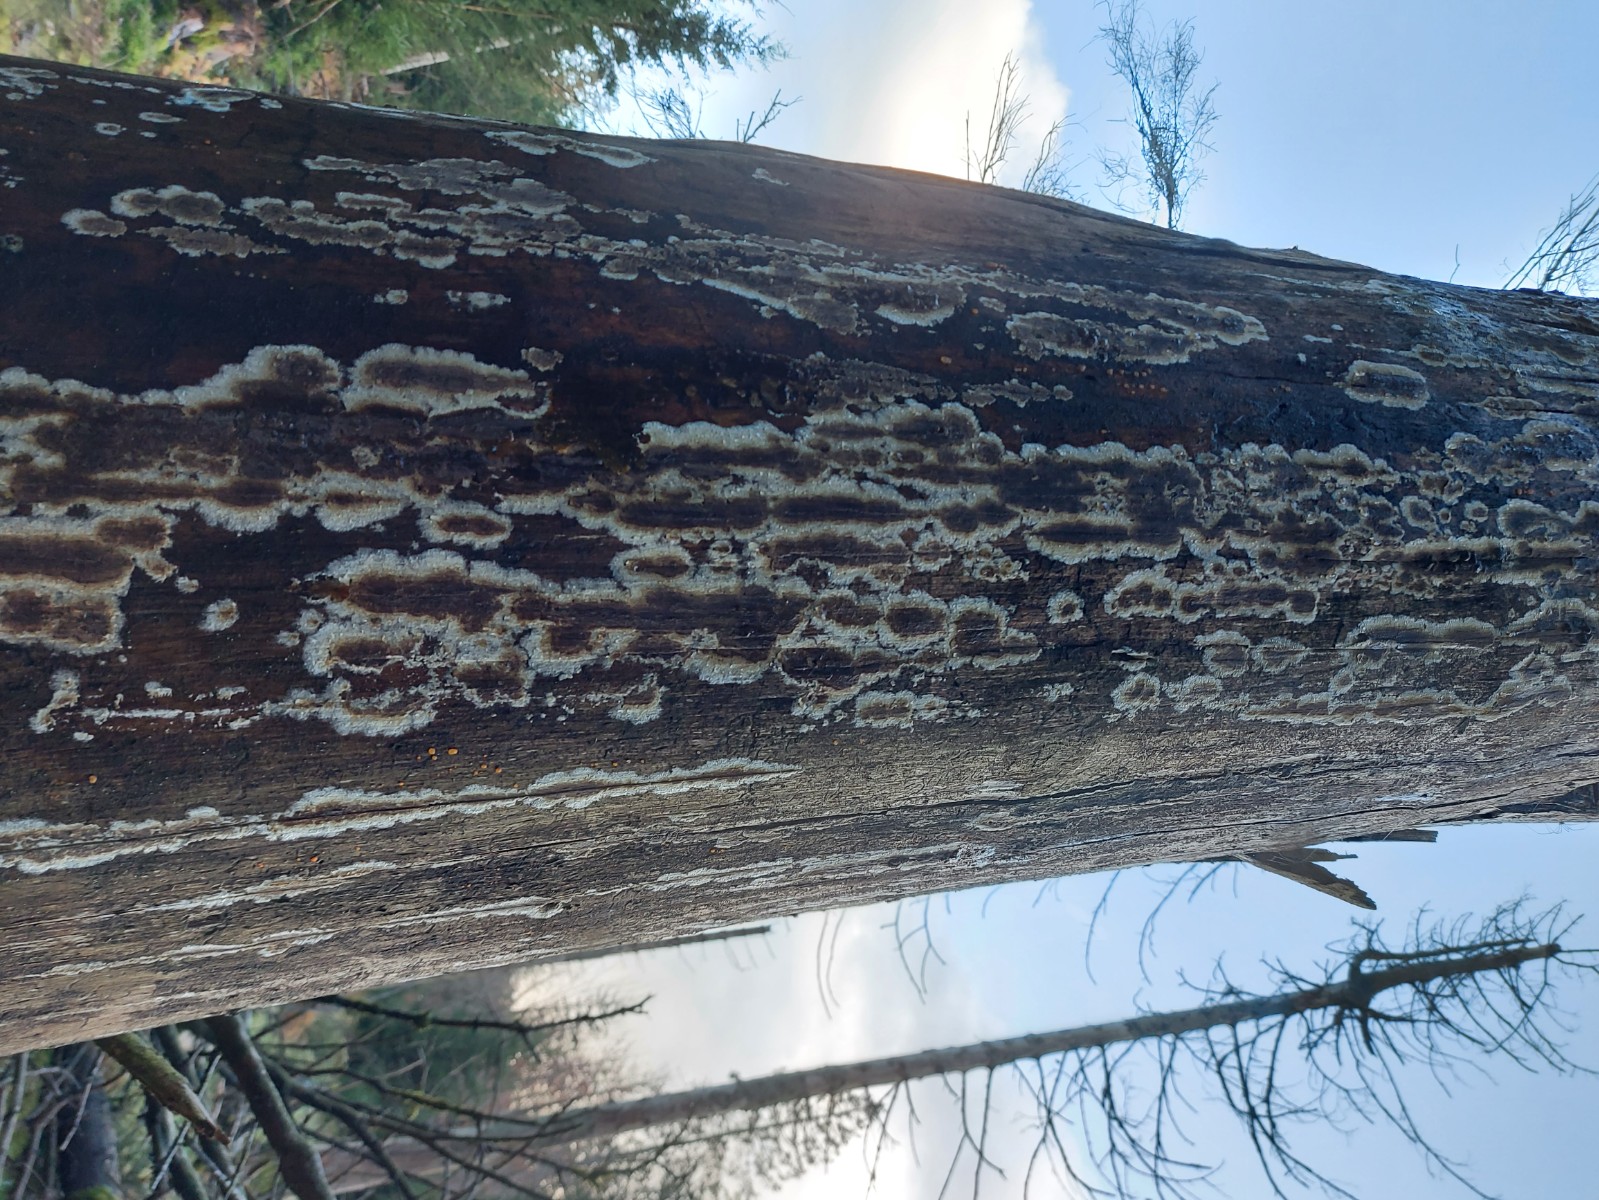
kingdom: Fungi
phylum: Basidiomycota
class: Agaricomycetes
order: Boletales
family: Coniophoraceae
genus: Coniophora
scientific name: Coniophora puteana
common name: gul tømmersvamp
